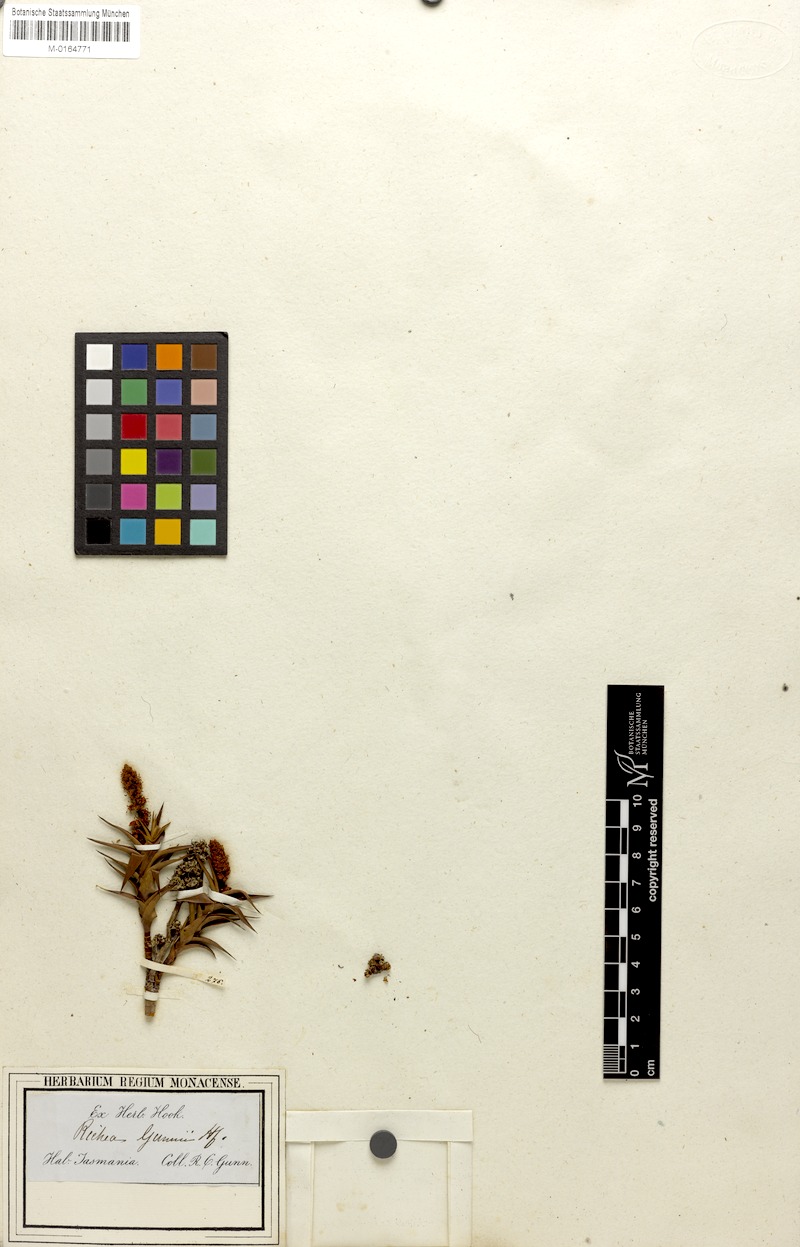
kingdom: Plantae
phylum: Tracheophyta
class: Magnoliopsida
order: Ericales
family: Ericaceae
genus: Dracophyllum
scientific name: Dracophyllum gunnii
